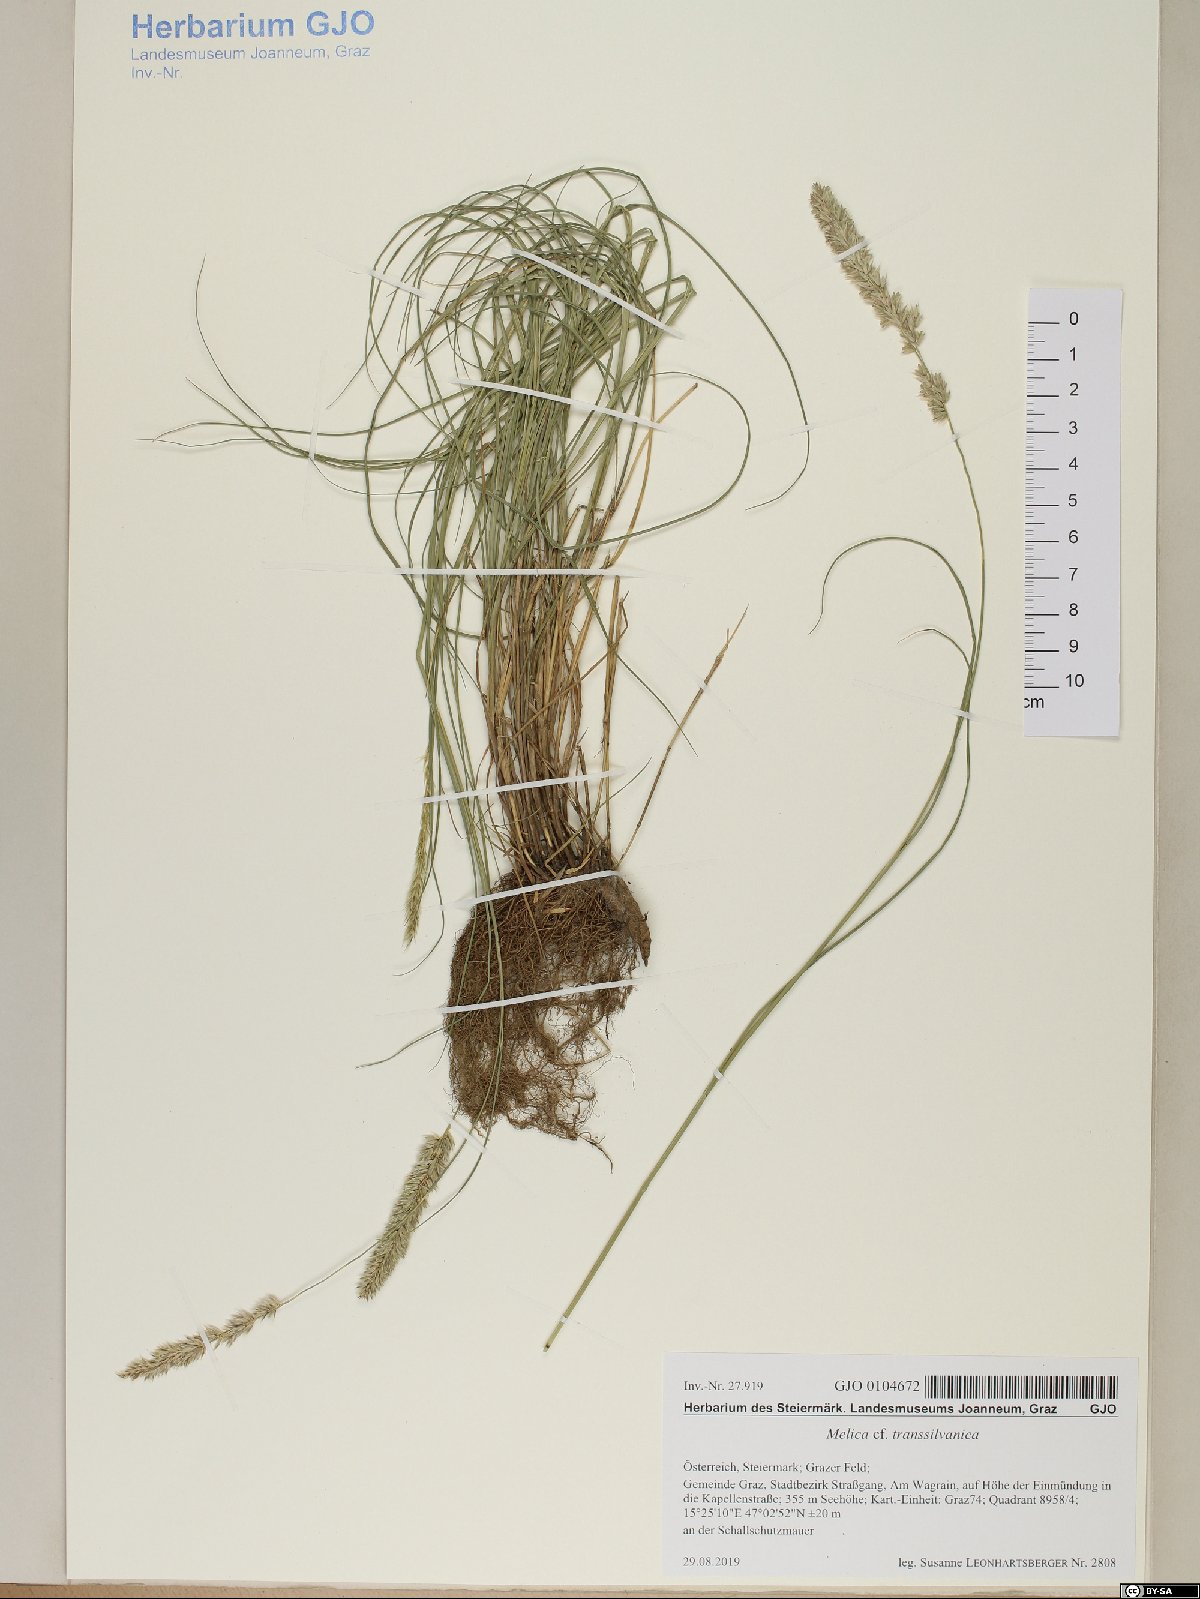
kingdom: Plantae
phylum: Tracheophyta
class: Liliopsida
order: Poales
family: Poaceae
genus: Melica
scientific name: Melica transsilvanica
